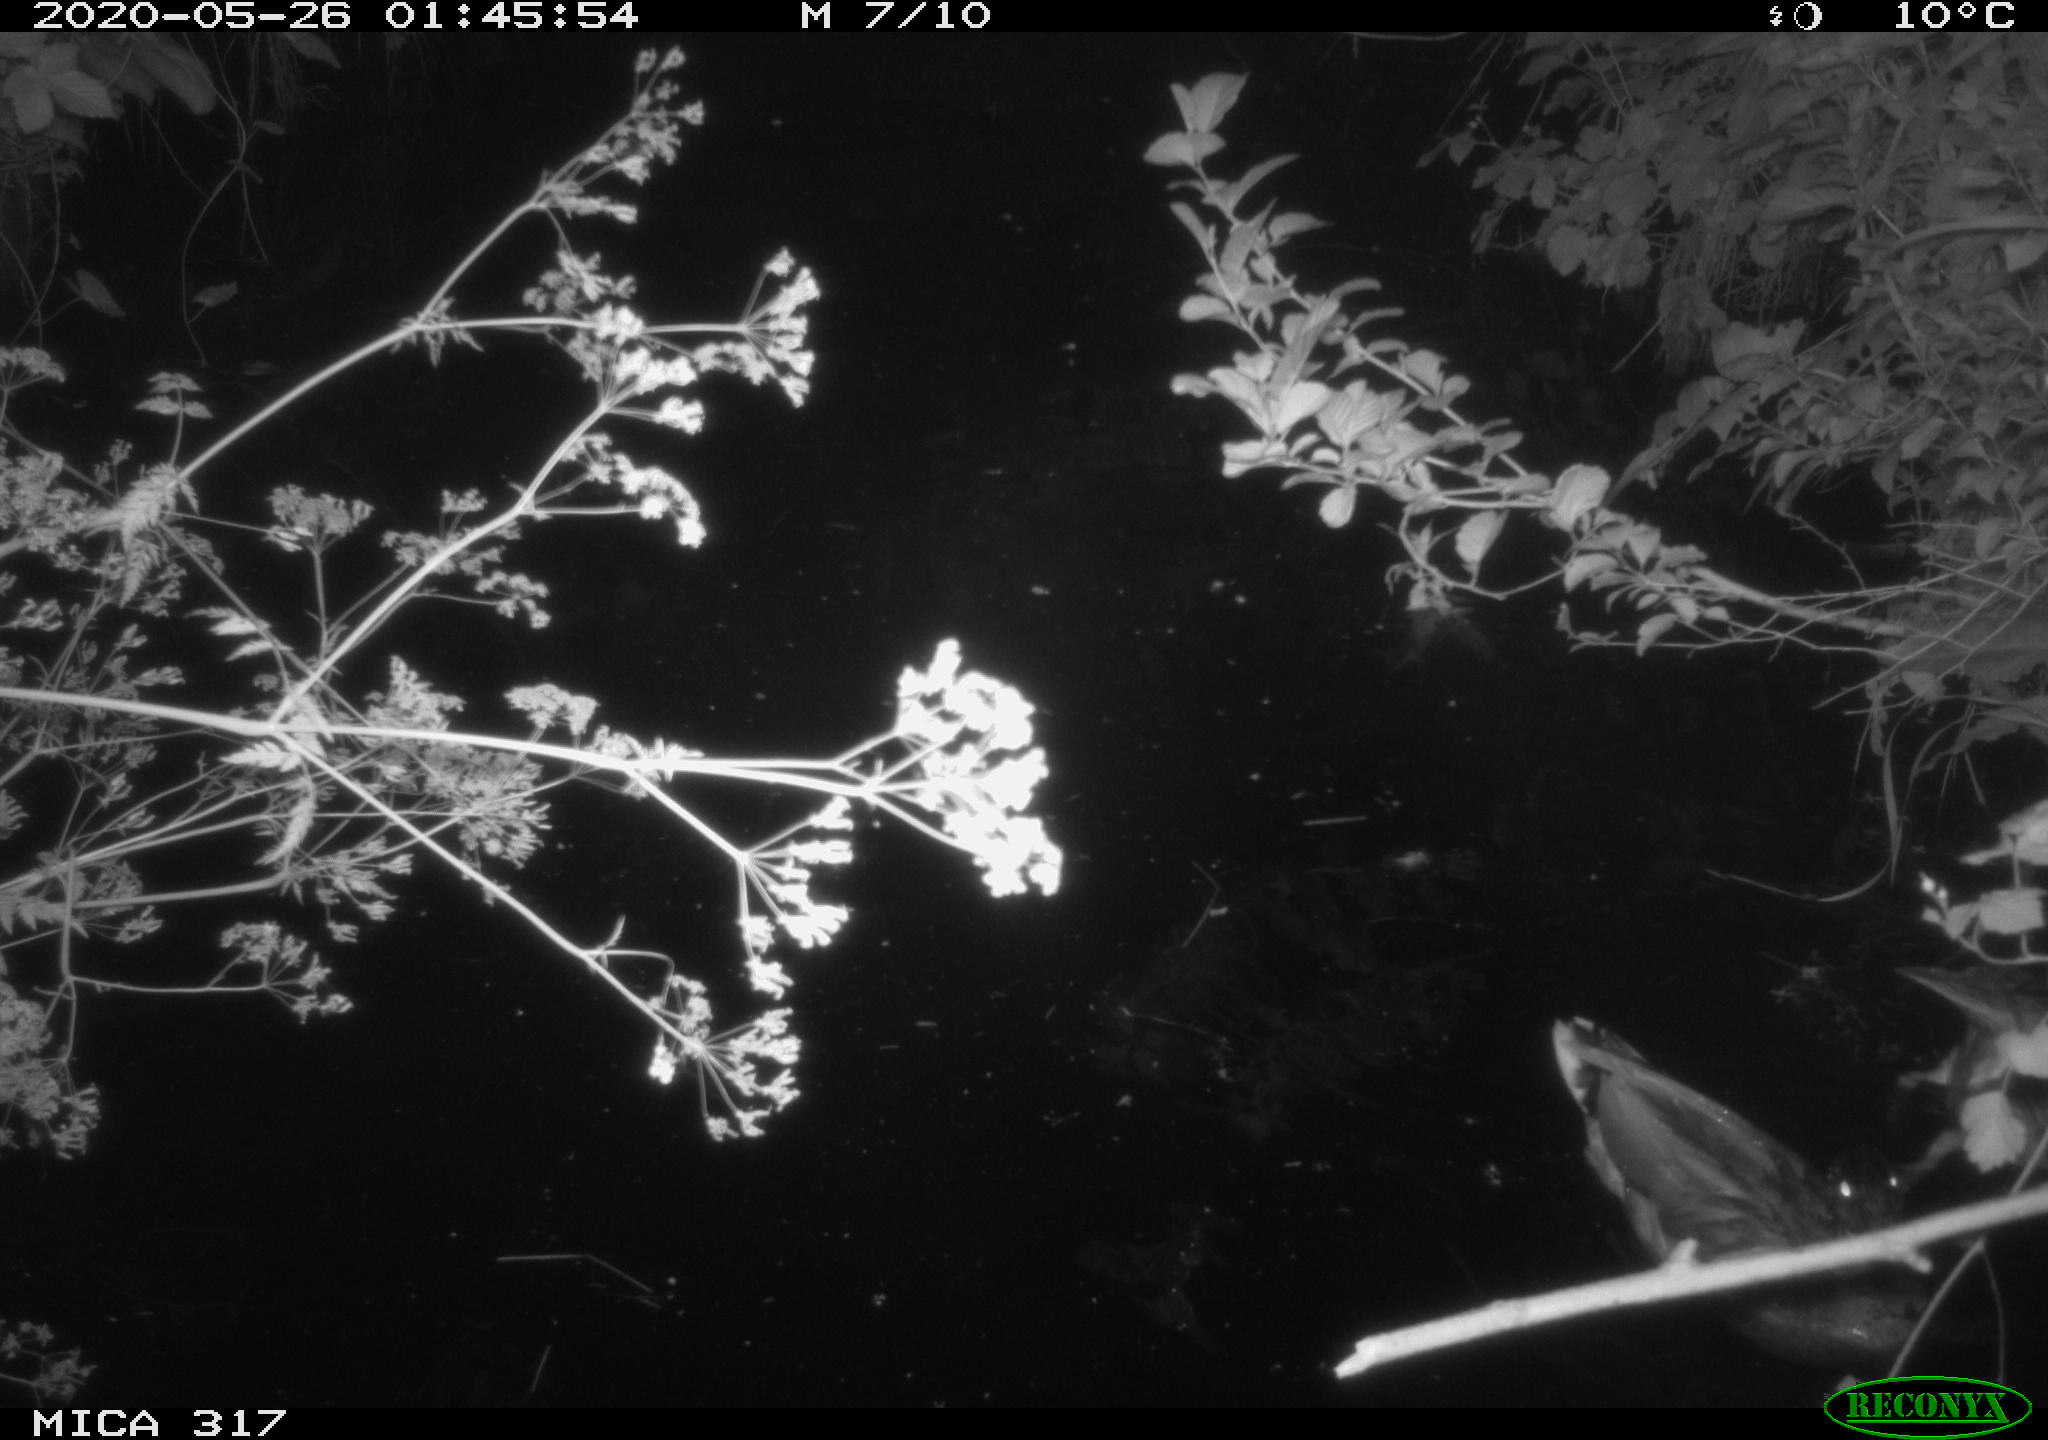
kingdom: Animalia
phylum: Chordata
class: Aves
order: Anseriformes
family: Anatidae
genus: Anas
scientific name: Anas platyrhynchos
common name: Mallard
